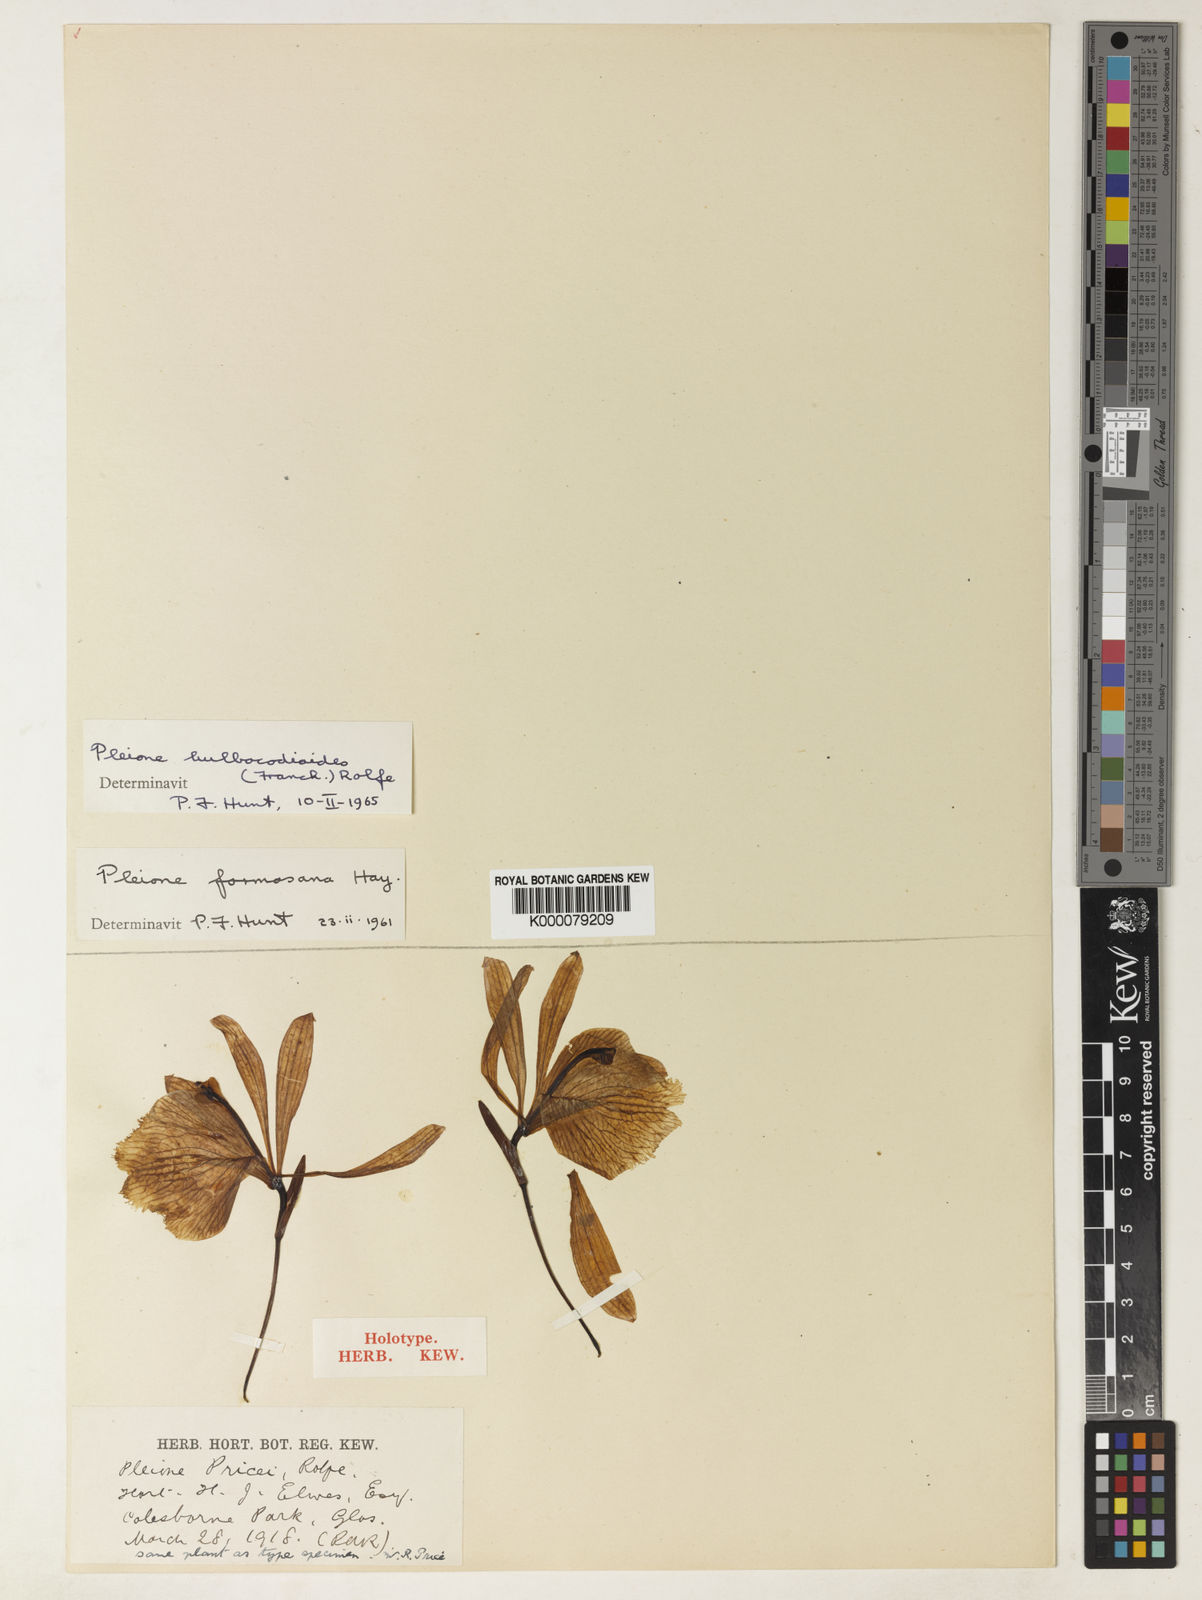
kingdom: Plantae
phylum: Tracheophyta
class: Liliopsida
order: Asparagales
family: Orchidaceae
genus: Pleione
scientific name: Pleione bulbocodioides
